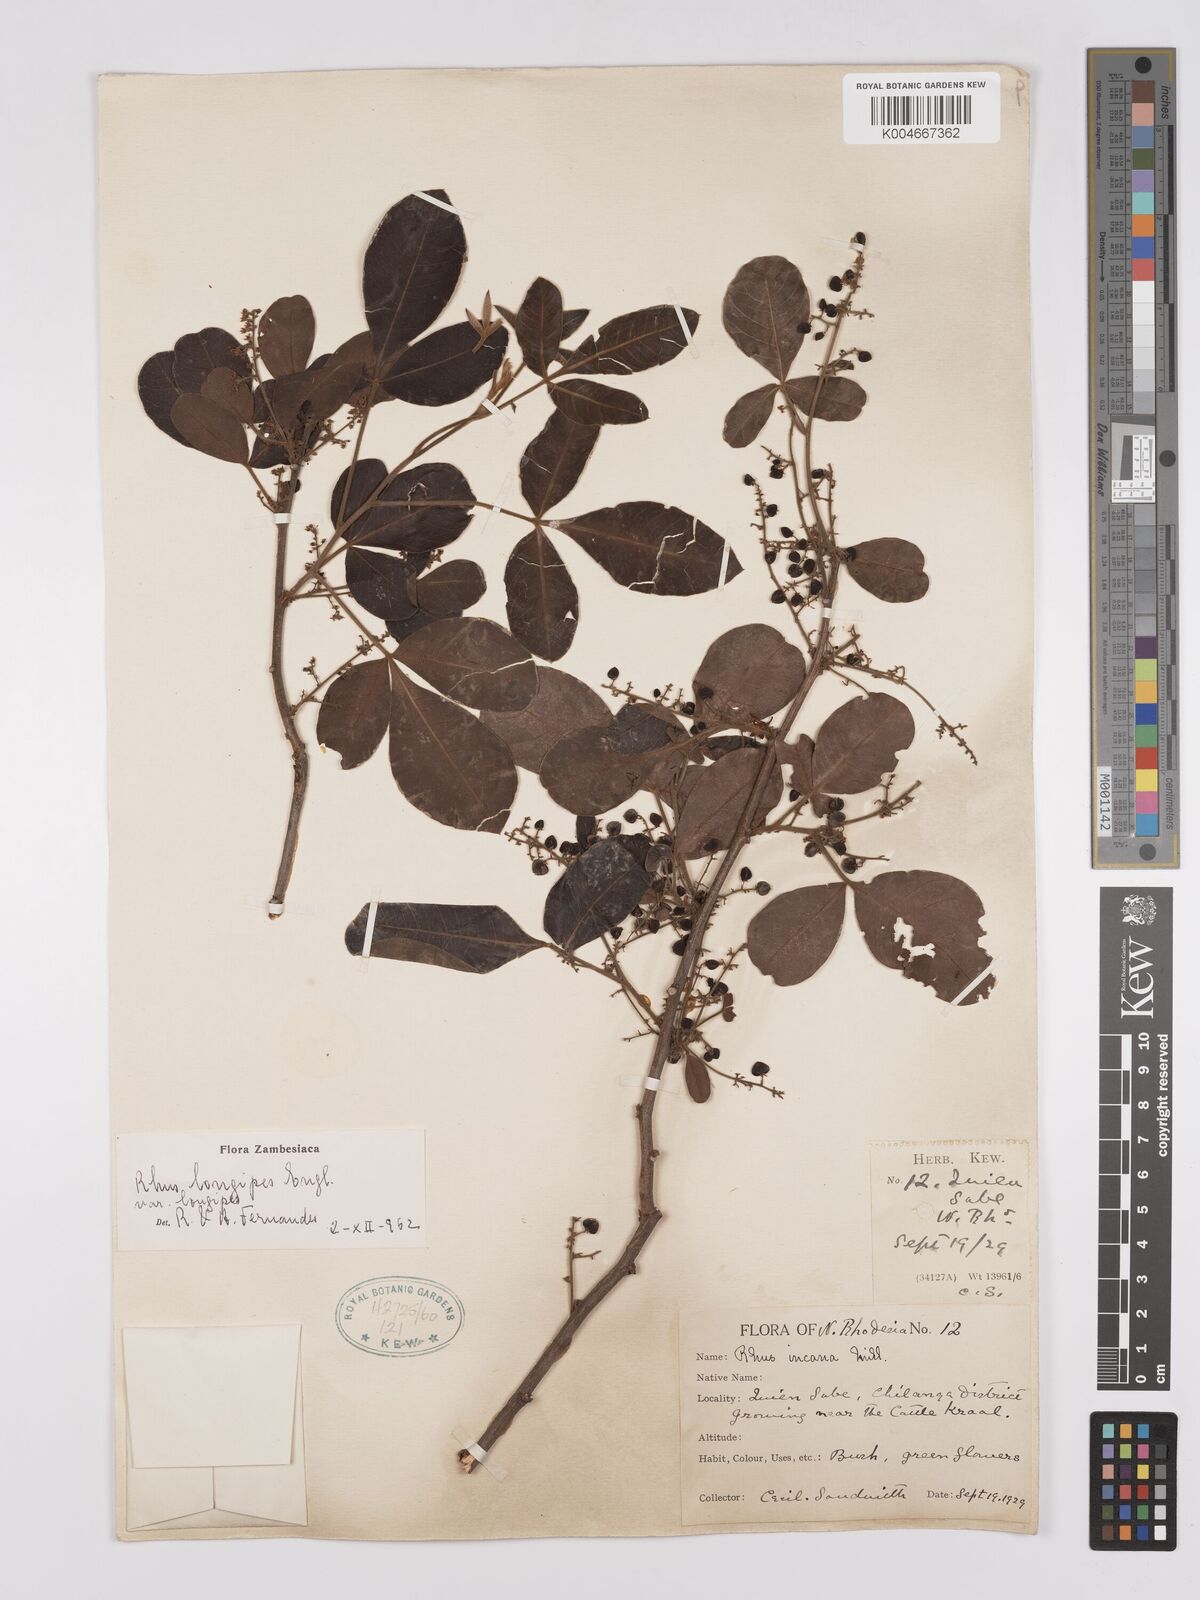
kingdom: Plantae
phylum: Tracheophyta
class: Magnoliopsida
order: Sapindales
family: Anacardiaceae
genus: Searsia
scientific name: Searsia longipes
